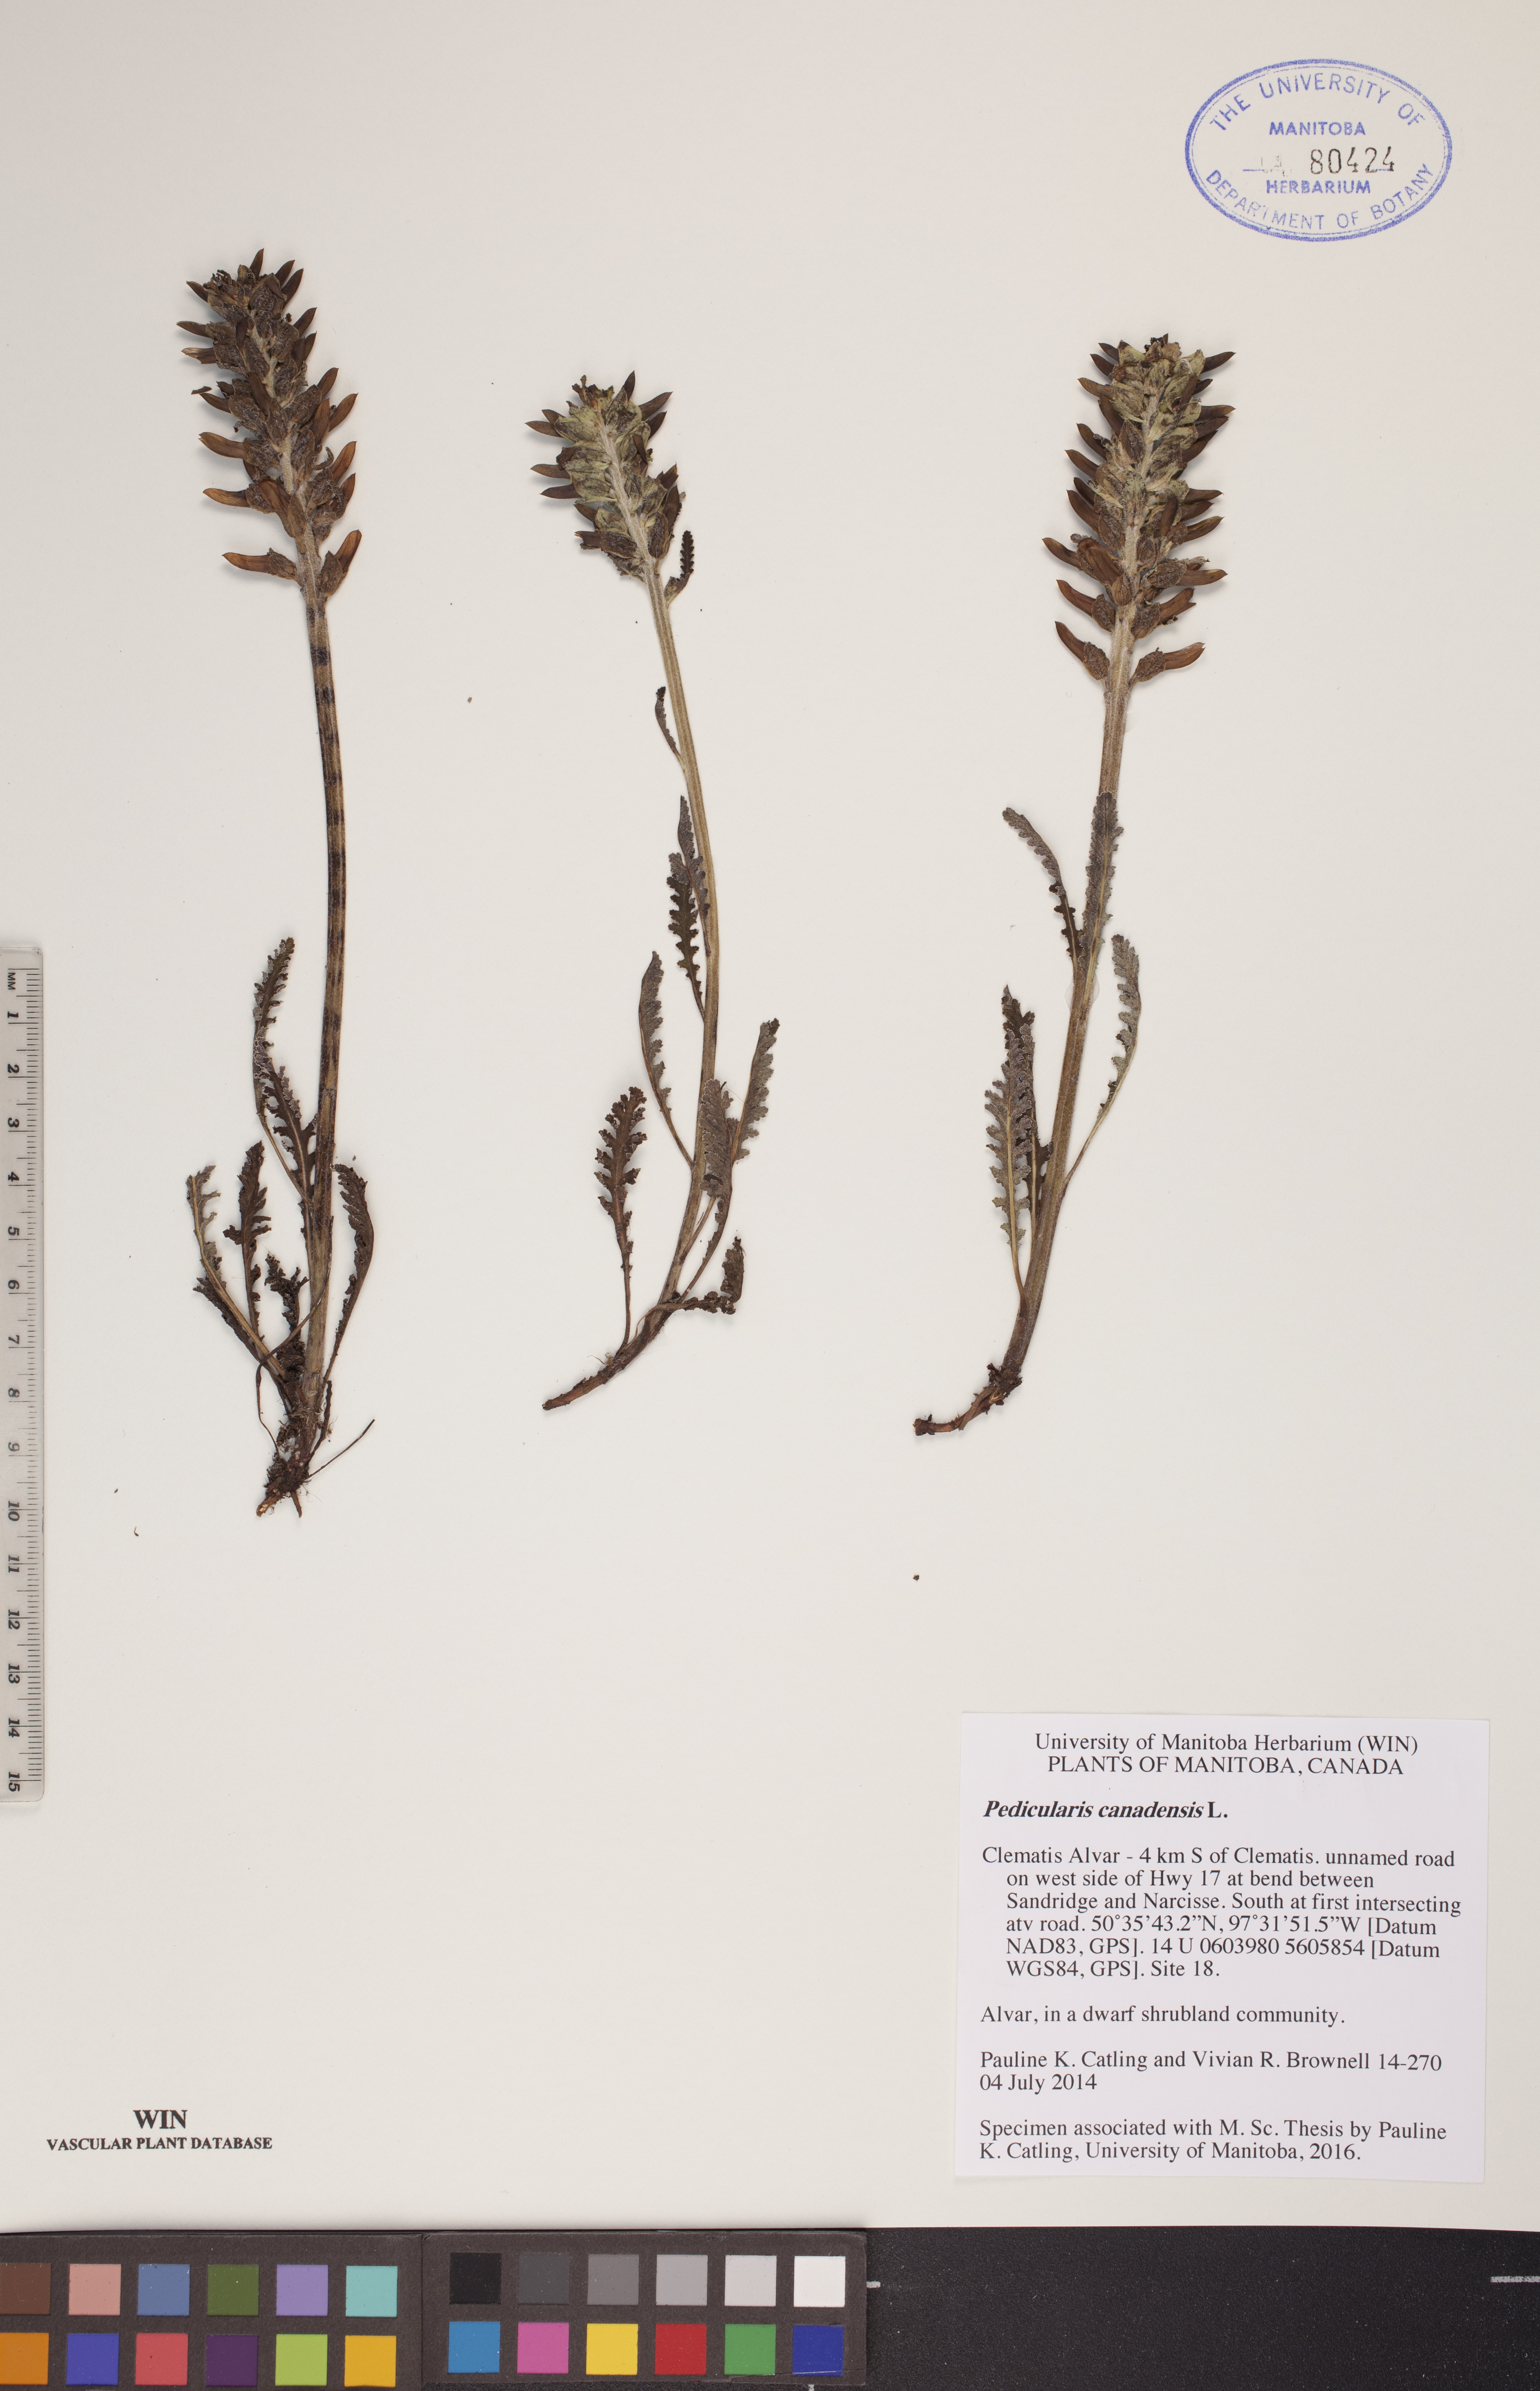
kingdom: Plantae
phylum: Tracheophyta
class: Magnoliopsida
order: Lamiales
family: Orobanchaceae
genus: Pedicularis
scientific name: Pedicularis canadensis
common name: Early lousewort
